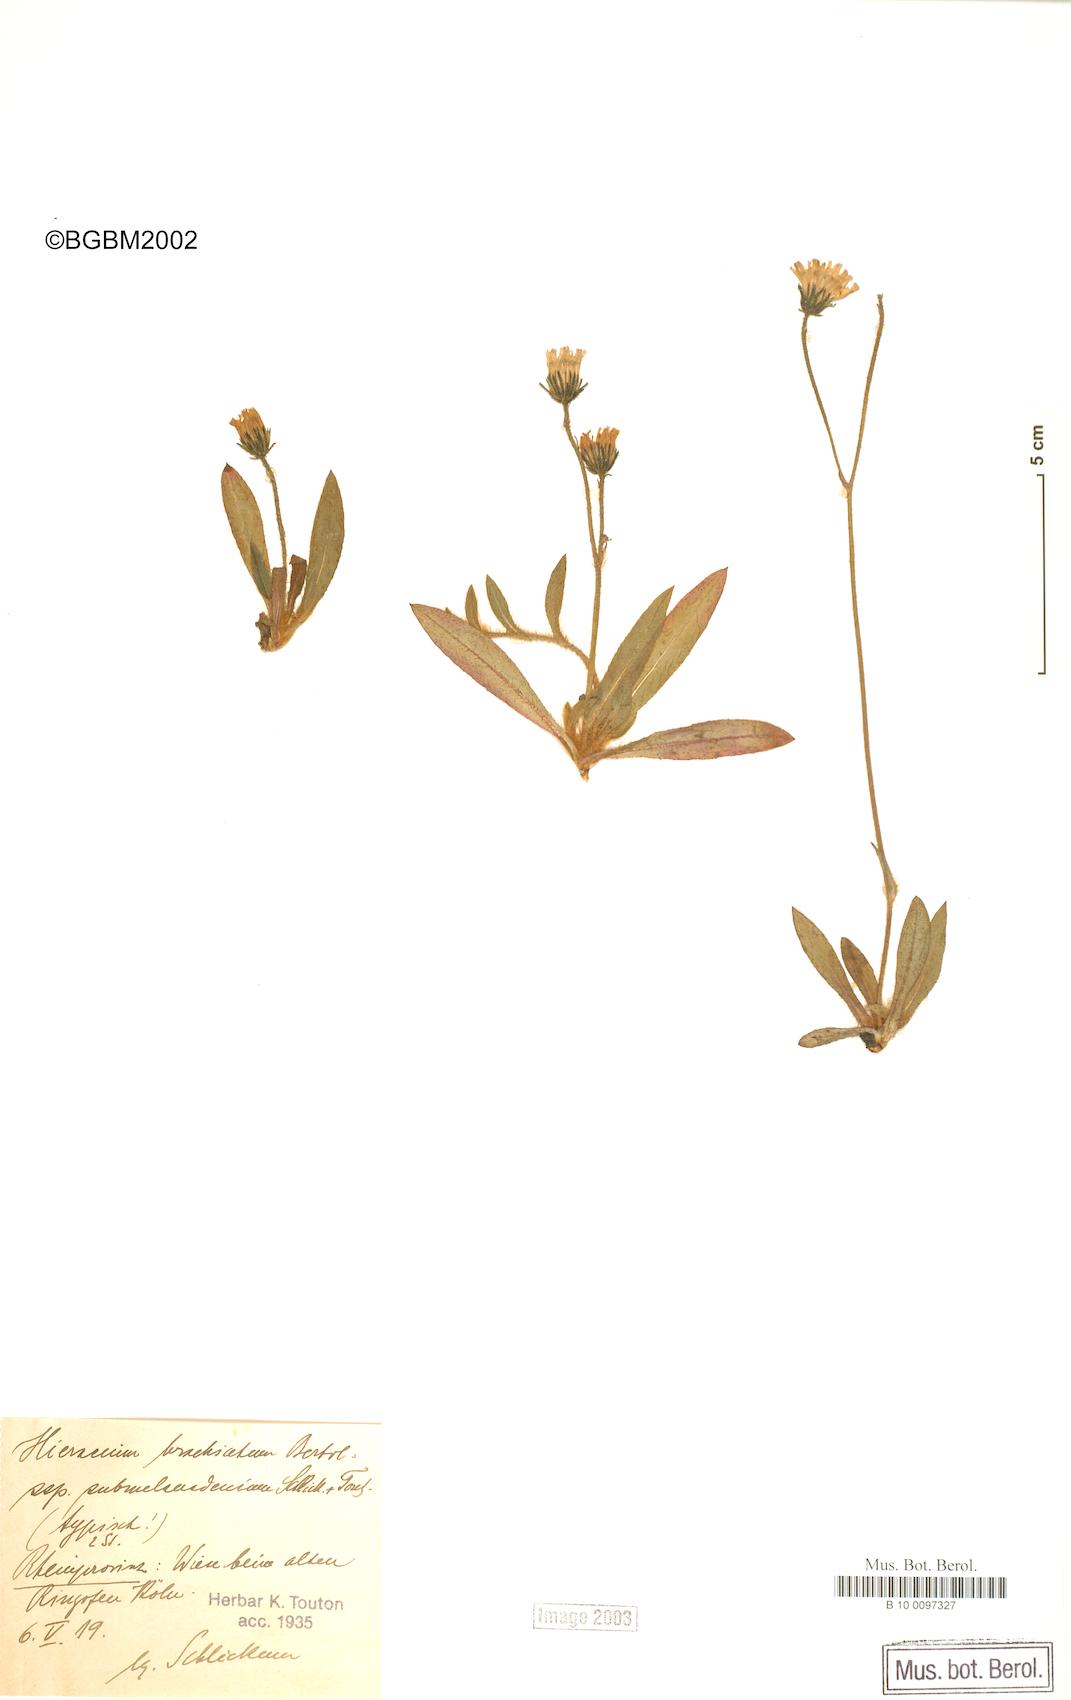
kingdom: Plantae
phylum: Tracheophyta
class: Magnoliopsida
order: Asterales
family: Asteraceae
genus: Pilosella
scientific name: Pilosella acutifolia
